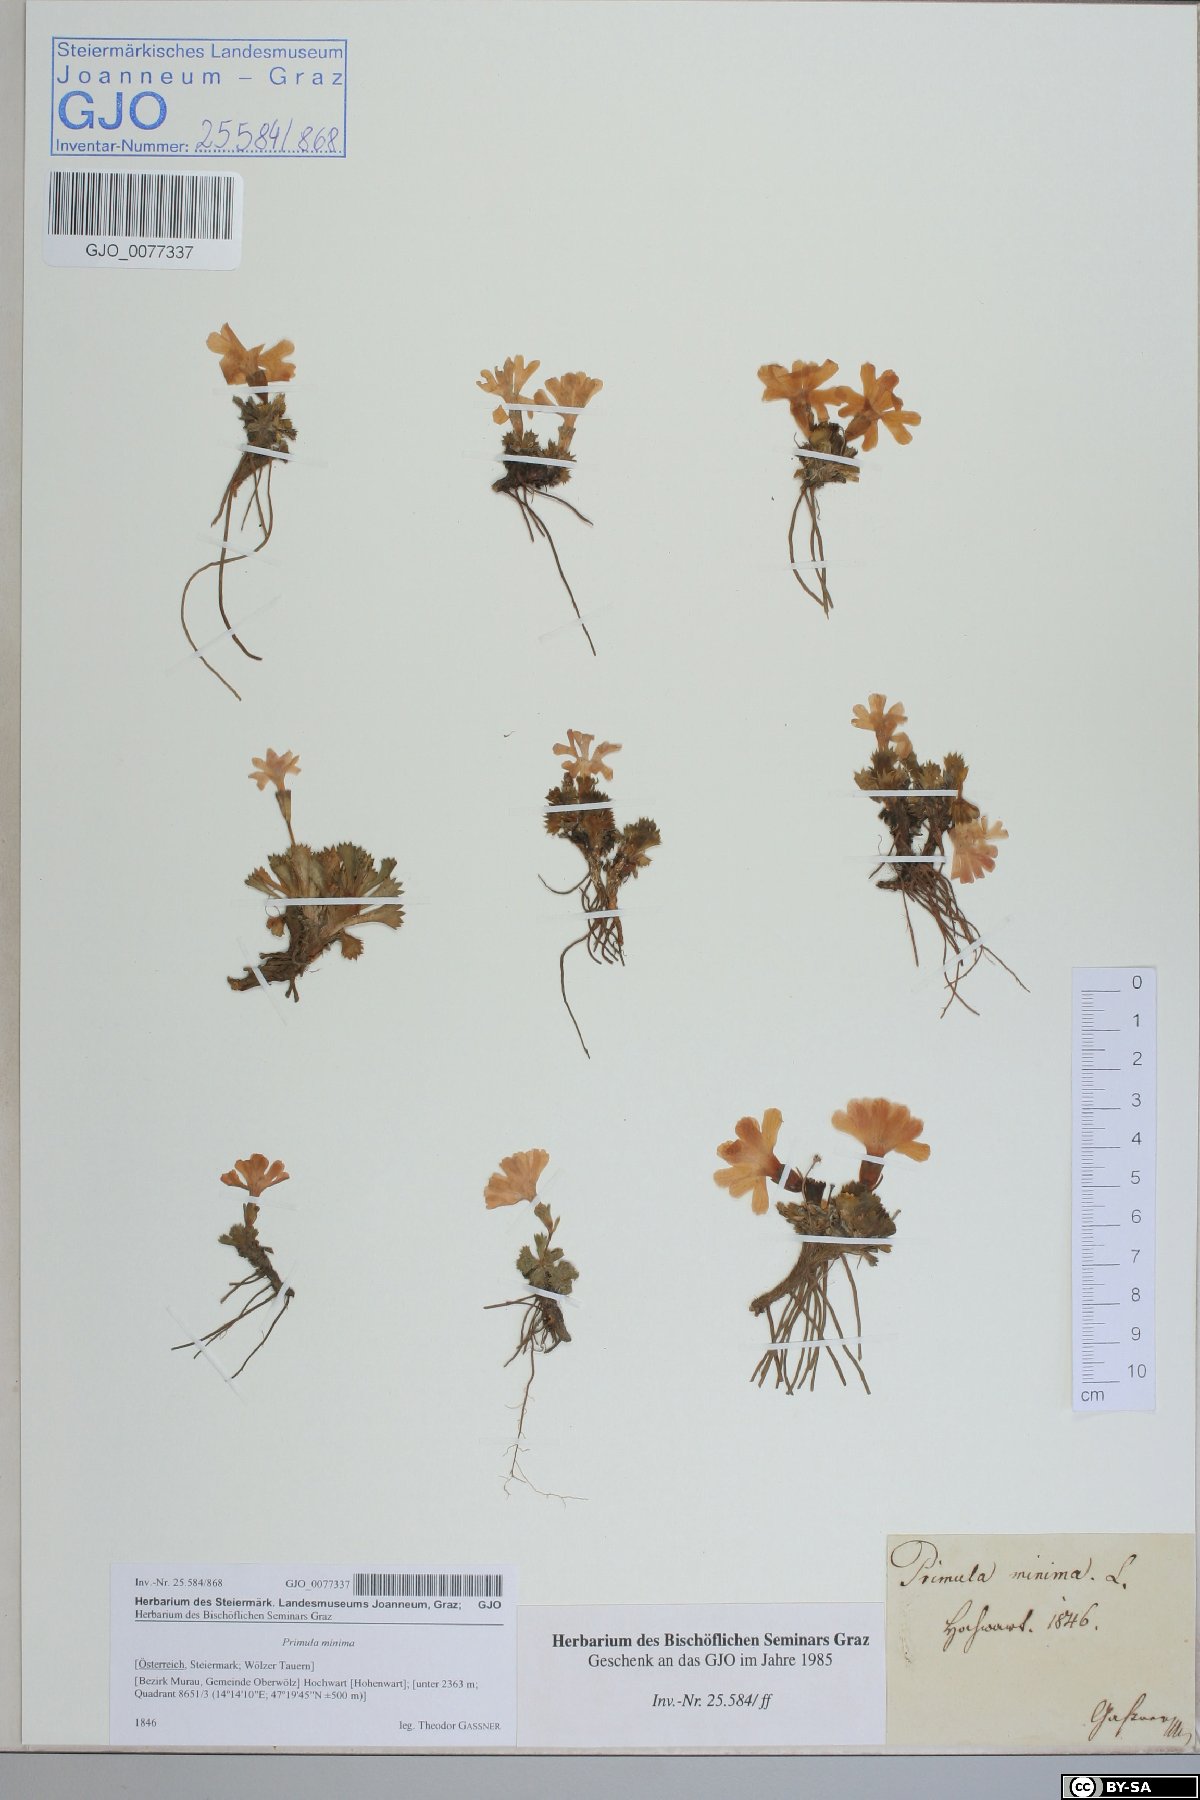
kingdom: Plantae
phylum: Tracheophyta
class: Magnoliopsida
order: Ericales
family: Primulaceae
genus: Primula
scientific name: Primula minima
